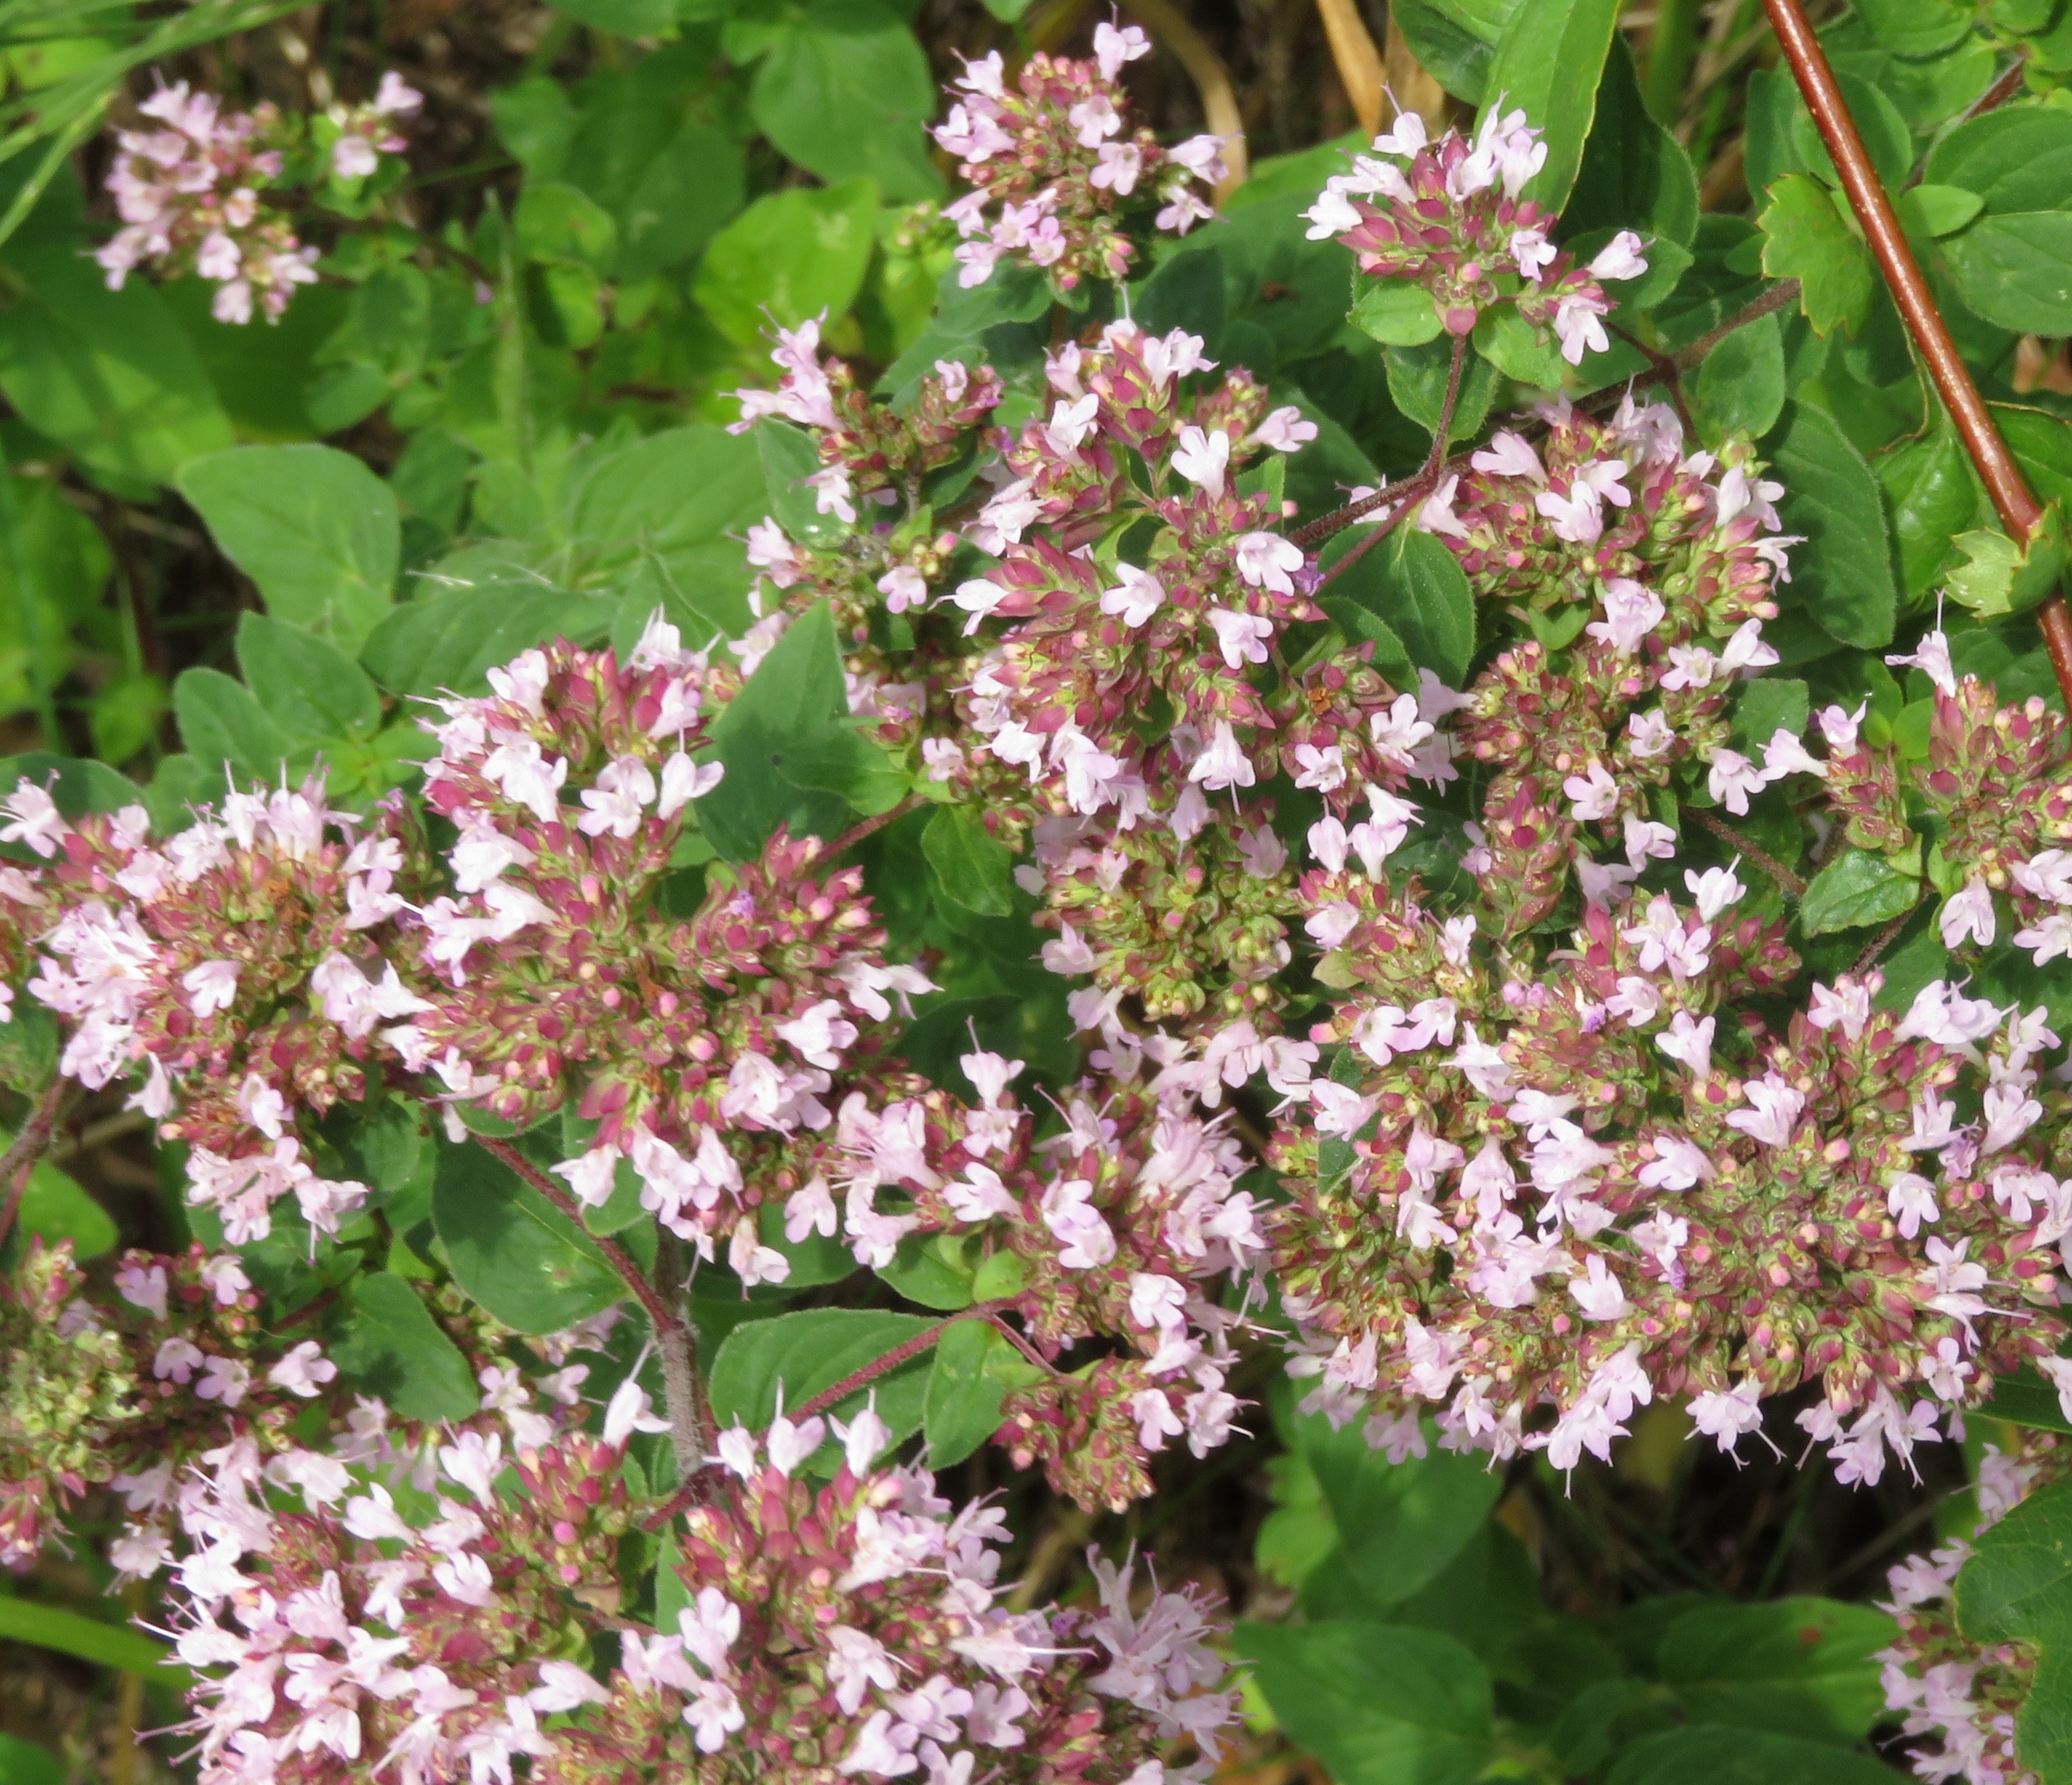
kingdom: Plantae
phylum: Tracheophyta
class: Magnoliopsida
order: Lamiales
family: Lamiaceae
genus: Origanum
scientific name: Origanum vulgare
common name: Merian
